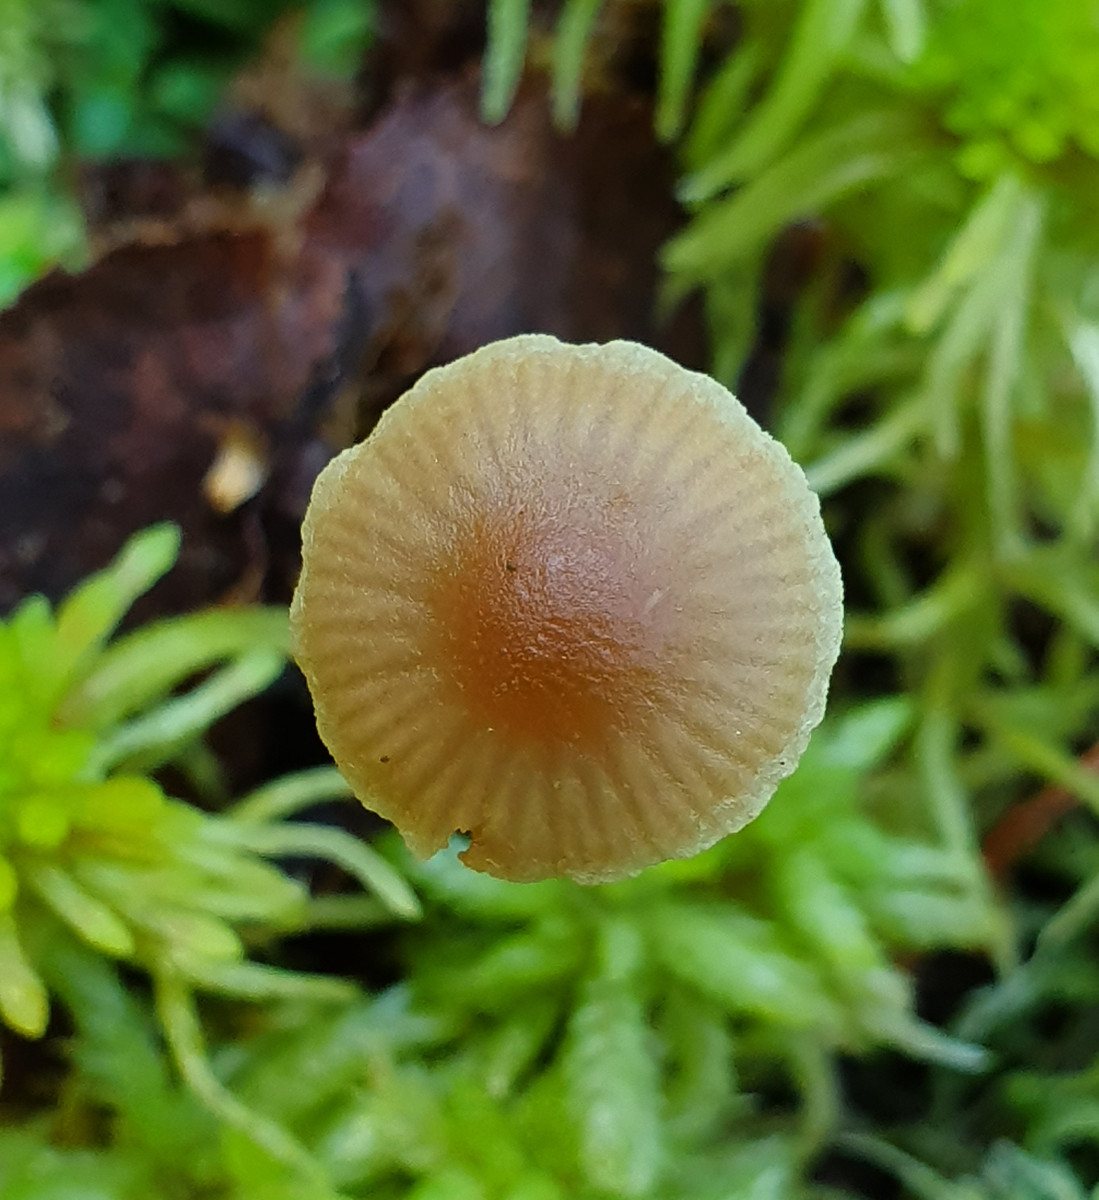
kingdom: Fungi
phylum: Basidiomycota
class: Agaricomycetes
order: Agaricales
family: Strophariaceae
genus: Bogbodia
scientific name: Bogbodia uda
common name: tørve-svovlhat
